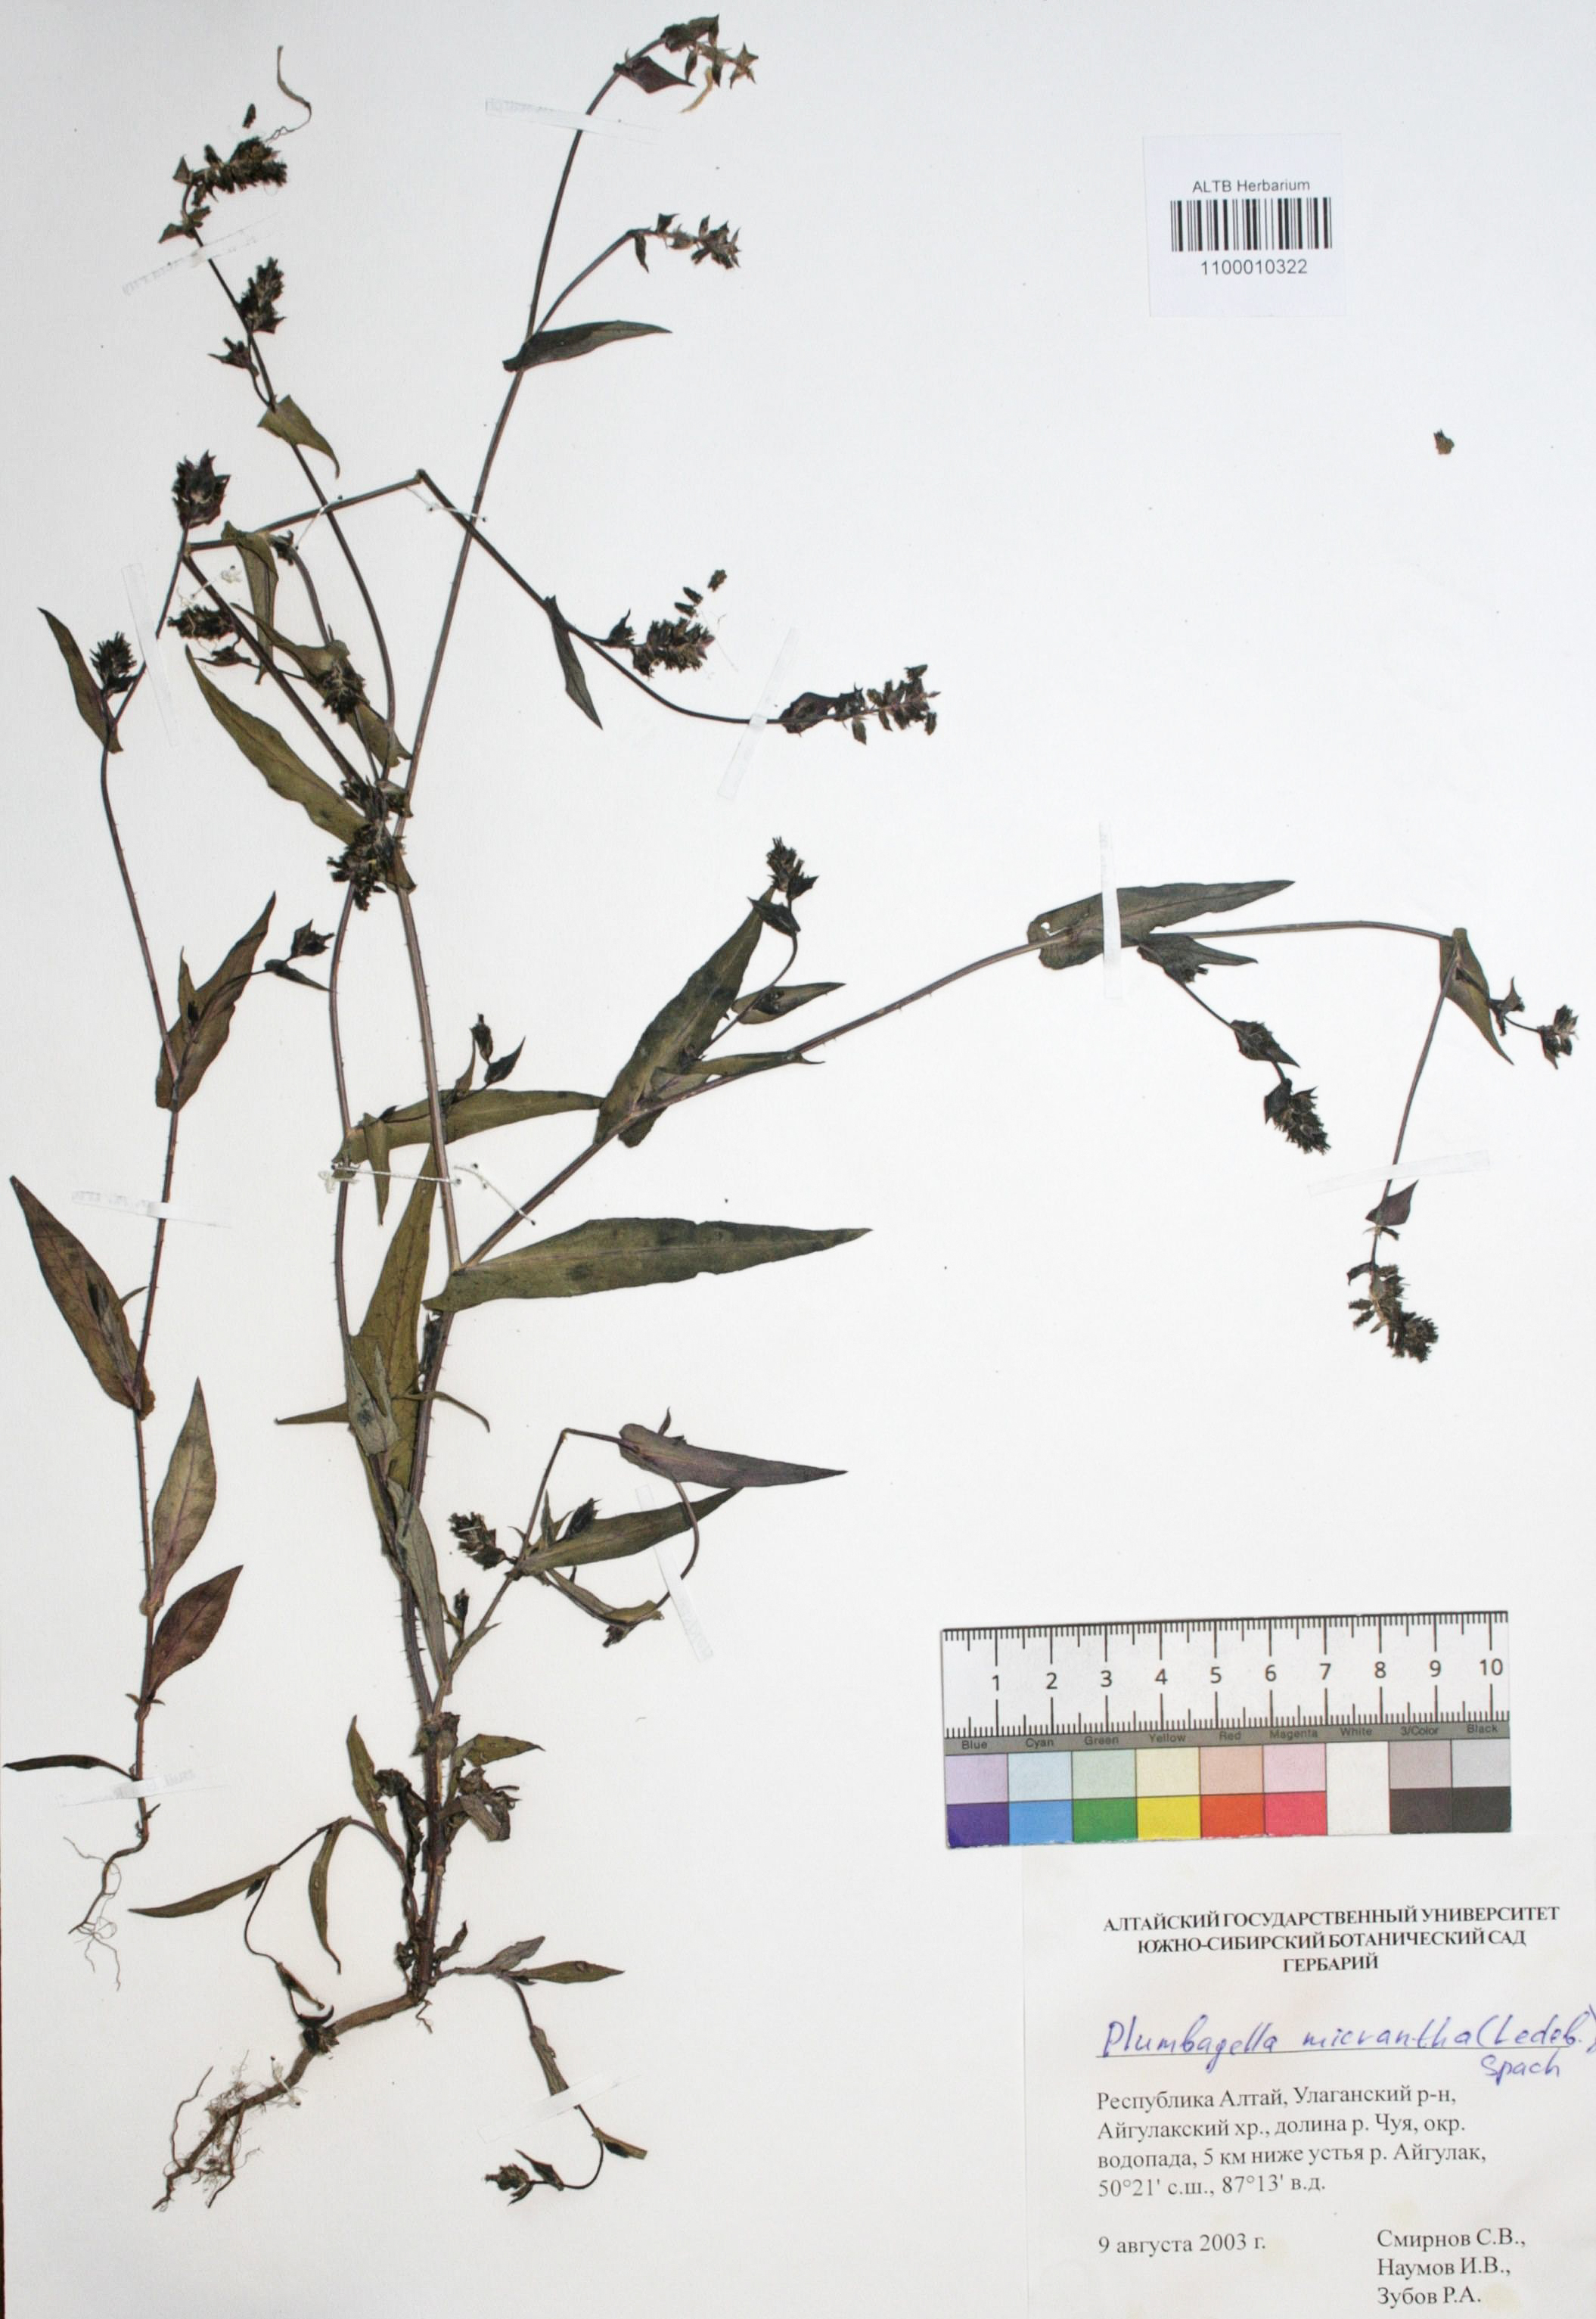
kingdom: Plantae
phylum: Tracheophyta
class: Magnoliopsida
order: Caryophyllales
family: Plumbaginaceae
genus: Plumbagella
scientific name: Plumbagella micrantha
